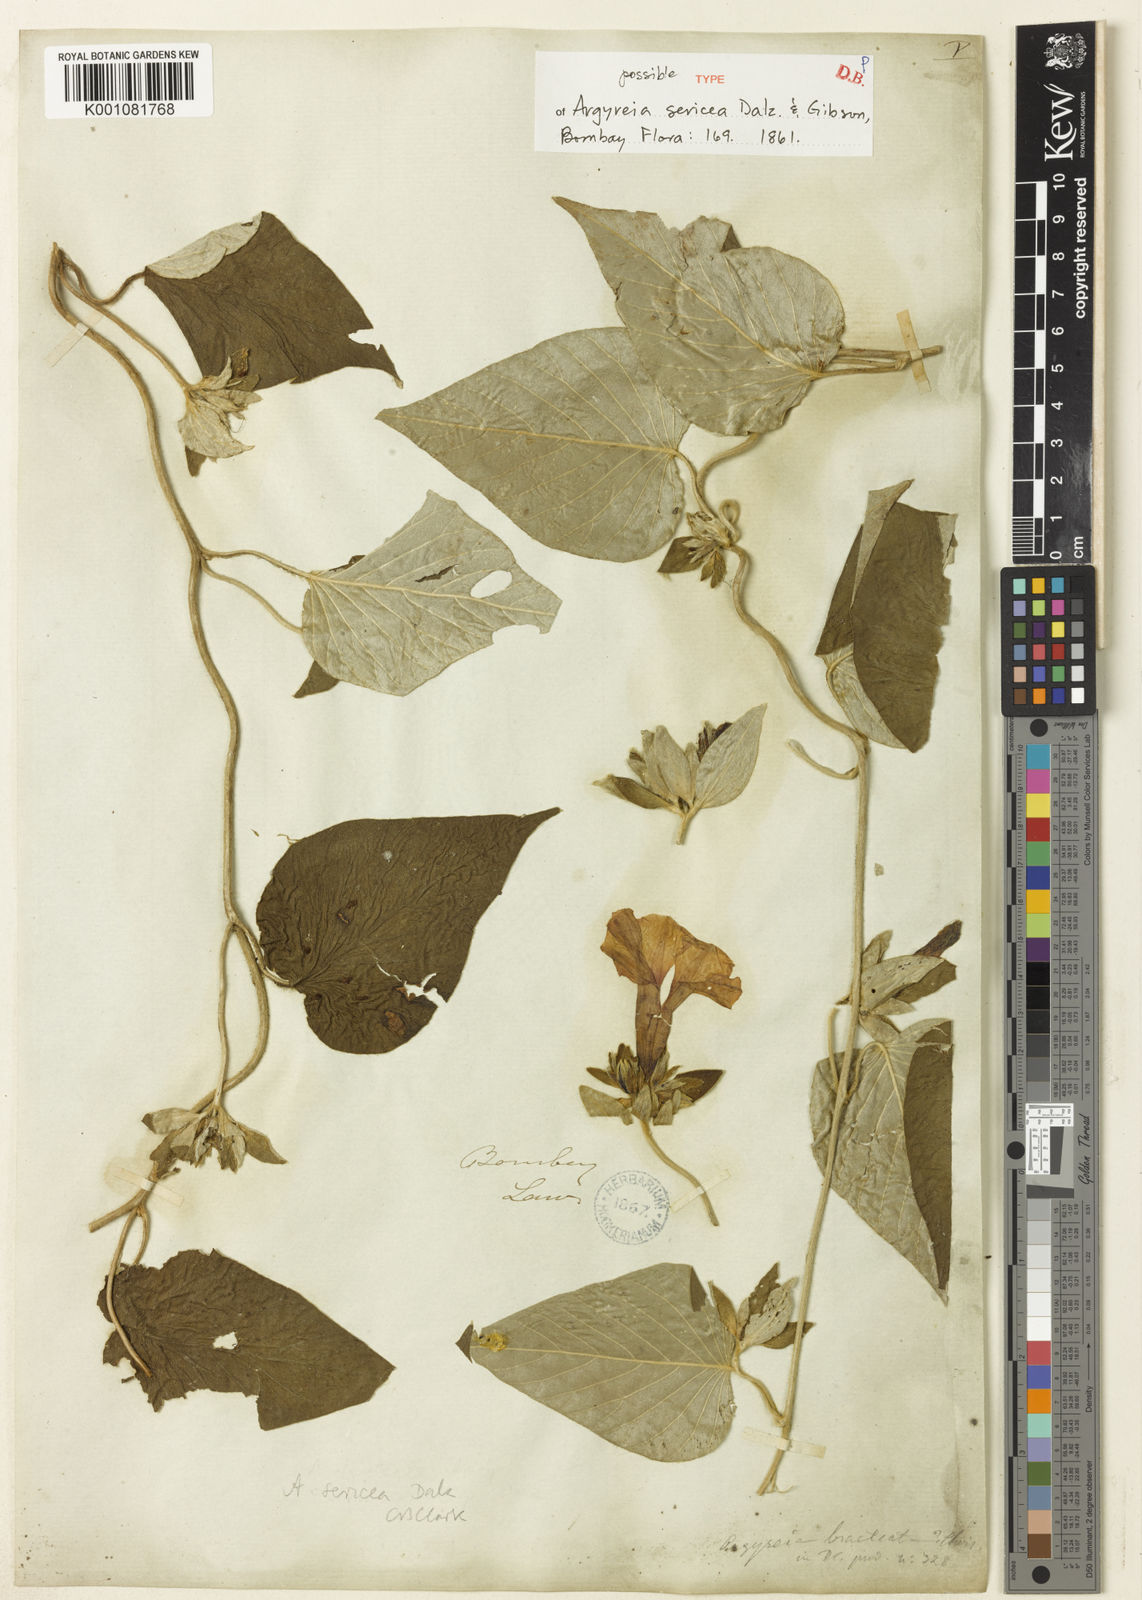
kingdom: Plantae
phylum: Tracheophyta
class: Magnoliopsida
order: Solanales
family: Convolvulaceae
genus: Argyreia
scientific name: Argyreia sericea
